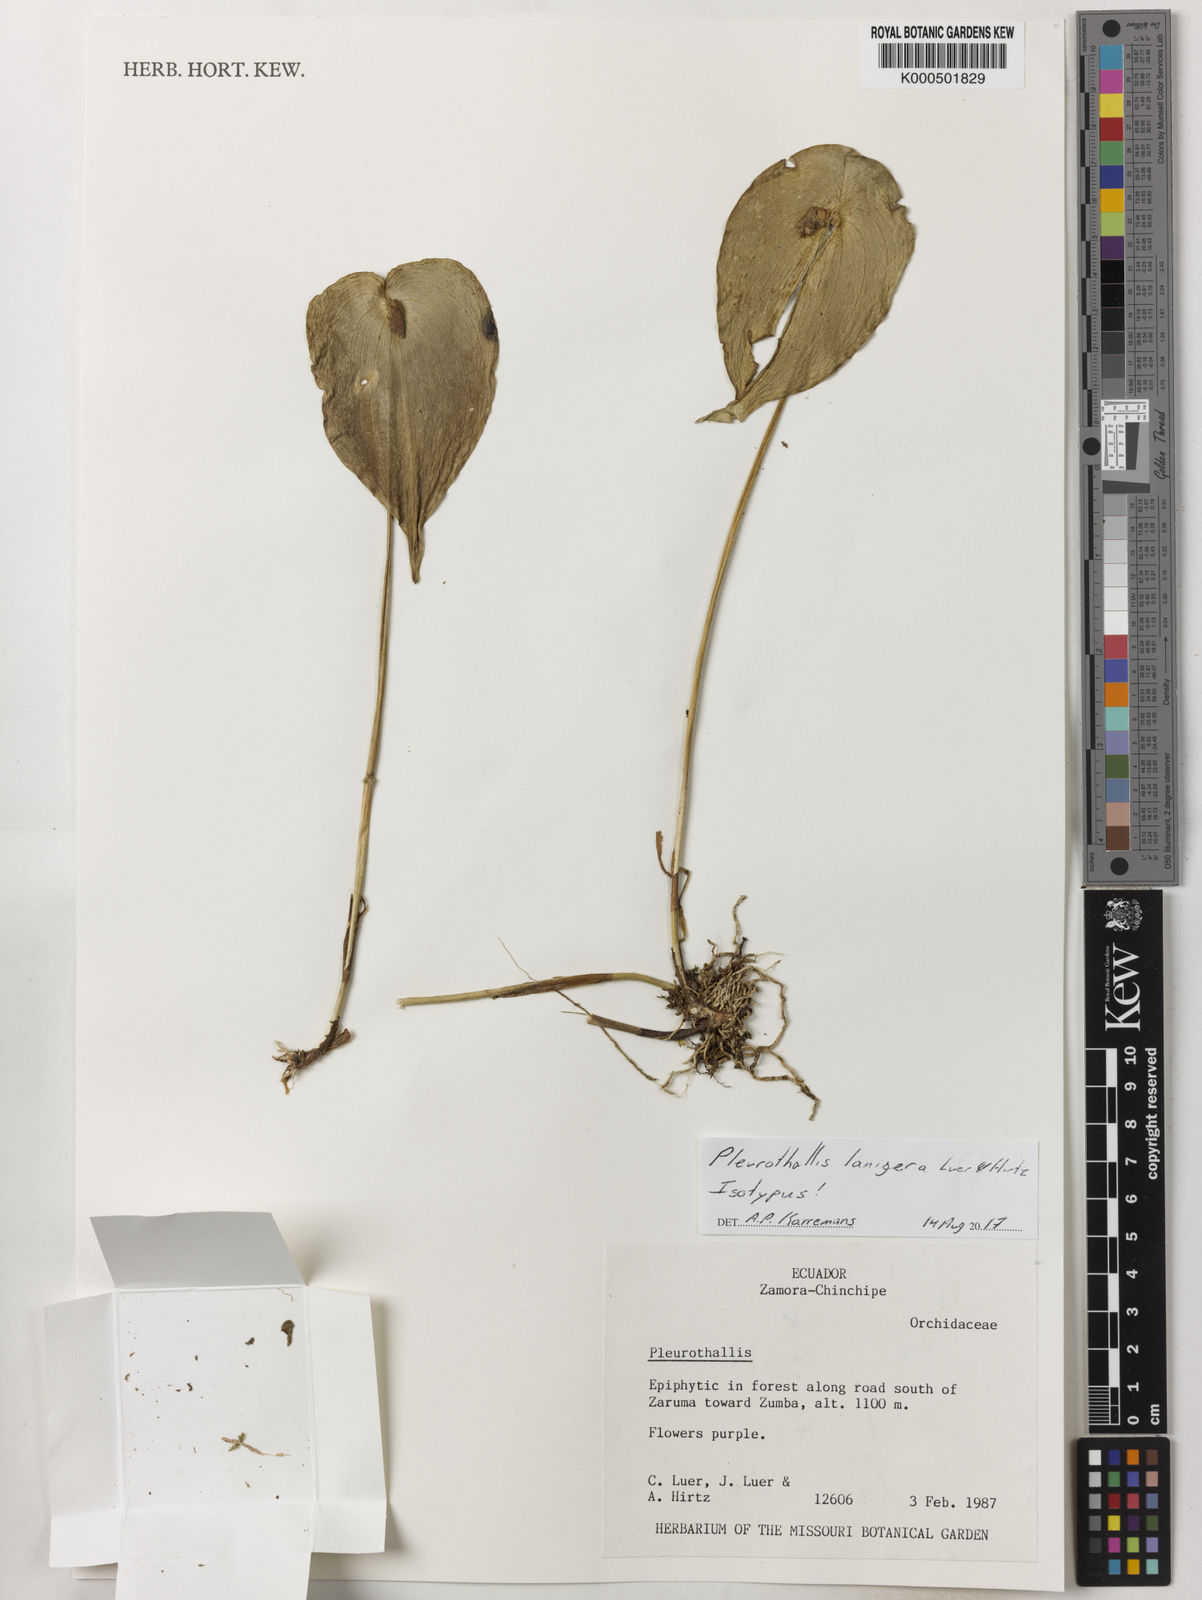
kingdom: Plantae
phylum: Tracheophyta
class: Liliopsida
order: Asparagales
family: Orchidaceae
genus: Pleurothallis
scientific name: Pleurothallis cardiostola
